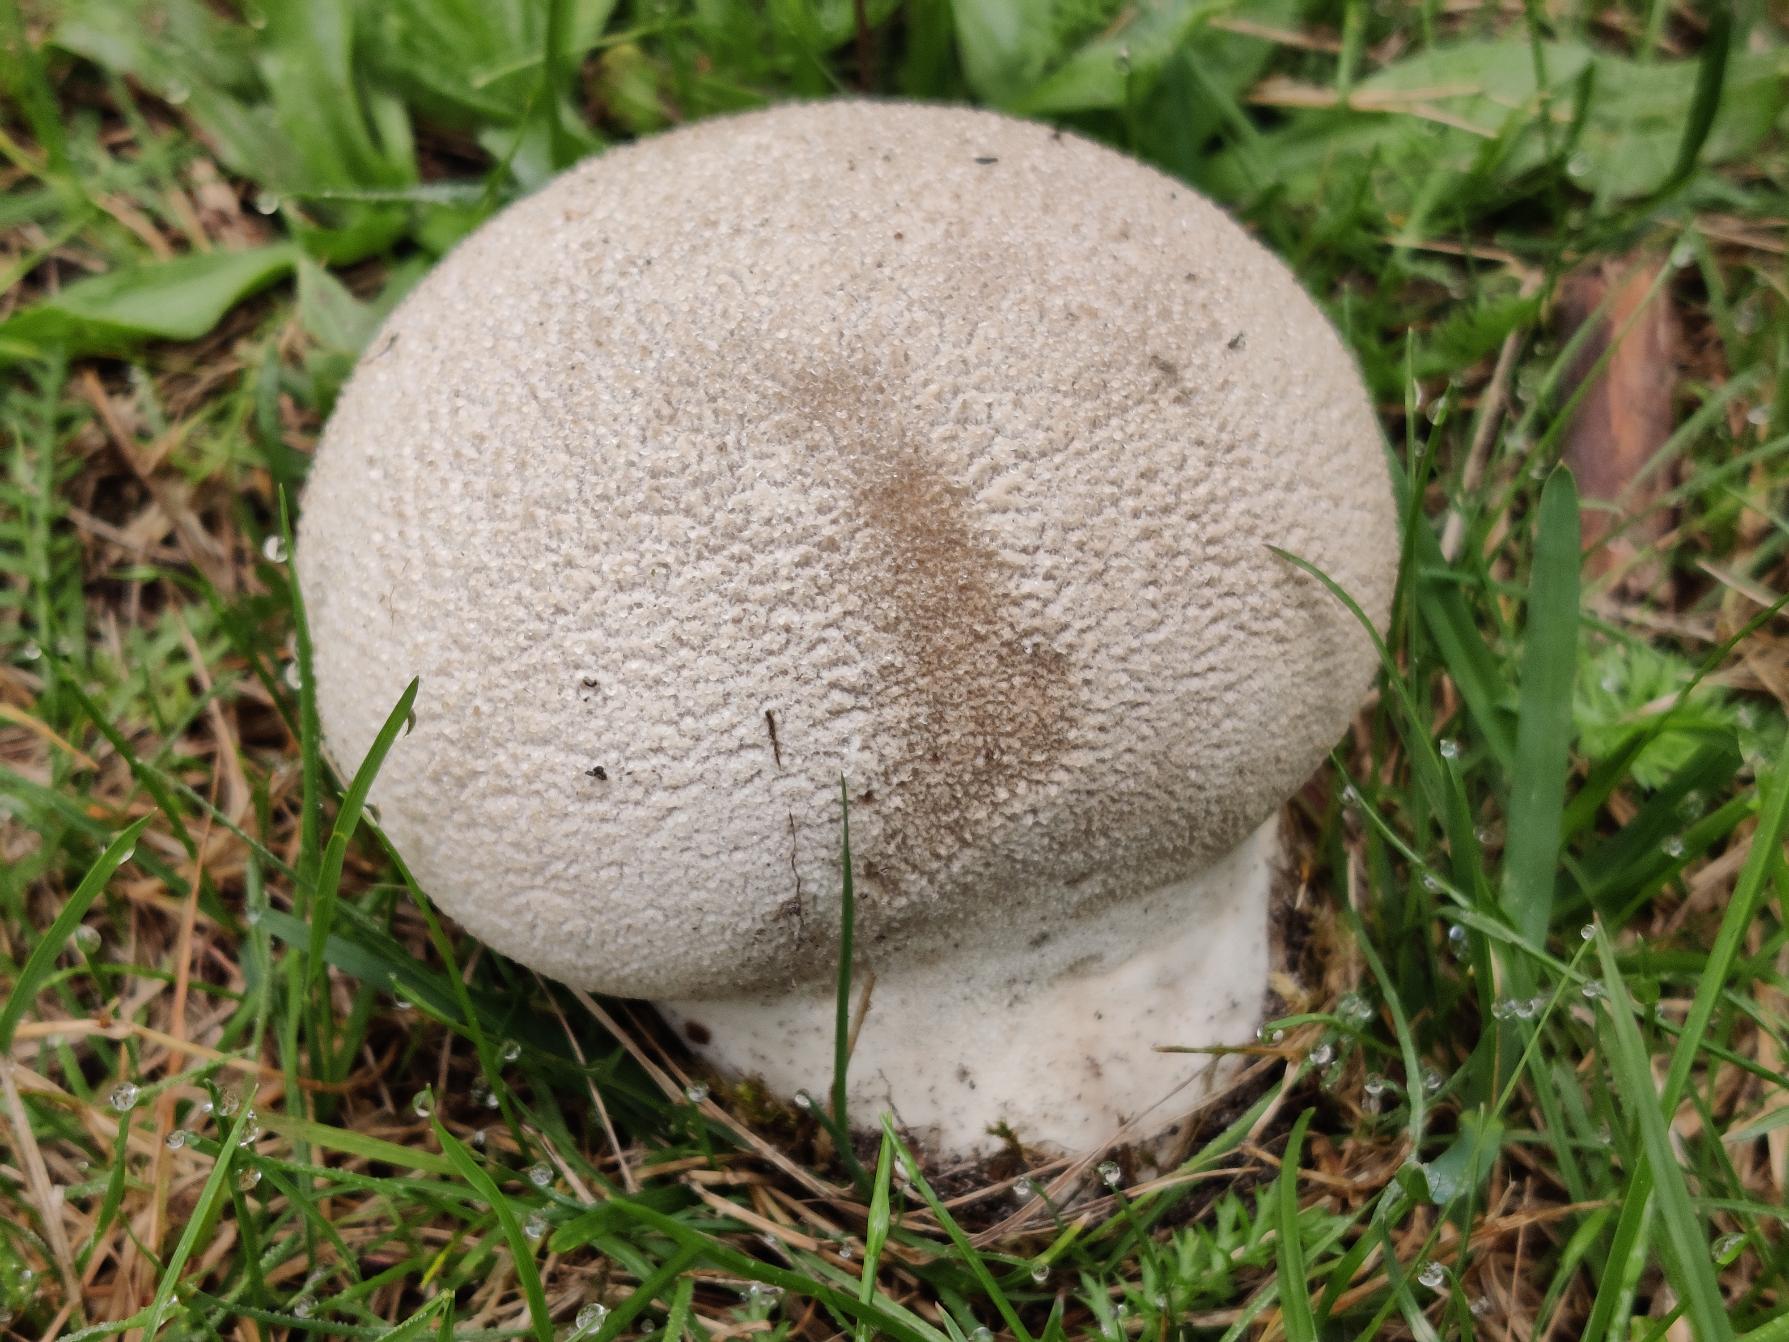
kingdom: Fungi
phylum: Basidiomycota
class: Agaricomycetes
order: Agaricales
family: Lycoperdaceae
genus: Bovistella
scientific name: Bovistella utriformis
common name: Skællet støvbold
